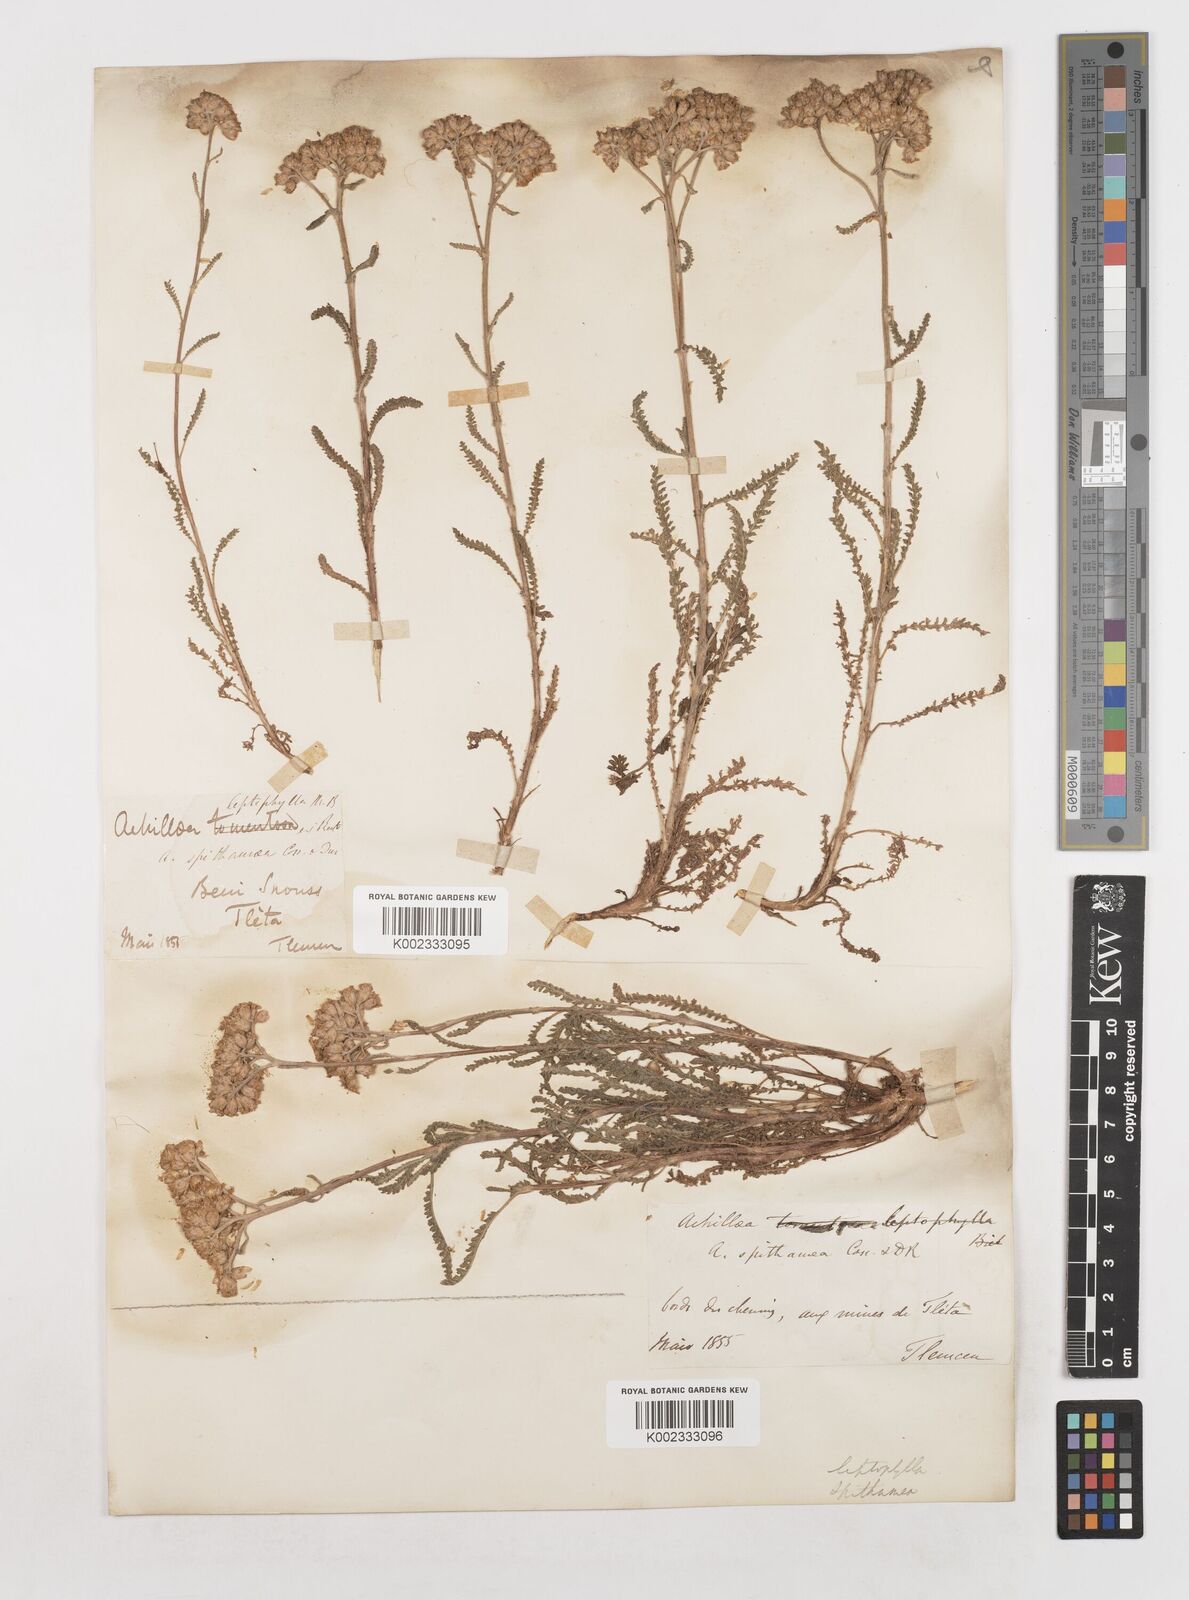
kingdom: Plantae
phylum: Tracheophyta
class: Magnoliopsida
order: Asterales
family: Asteraceae
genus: Achillea
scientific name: Achillea leptophylla
